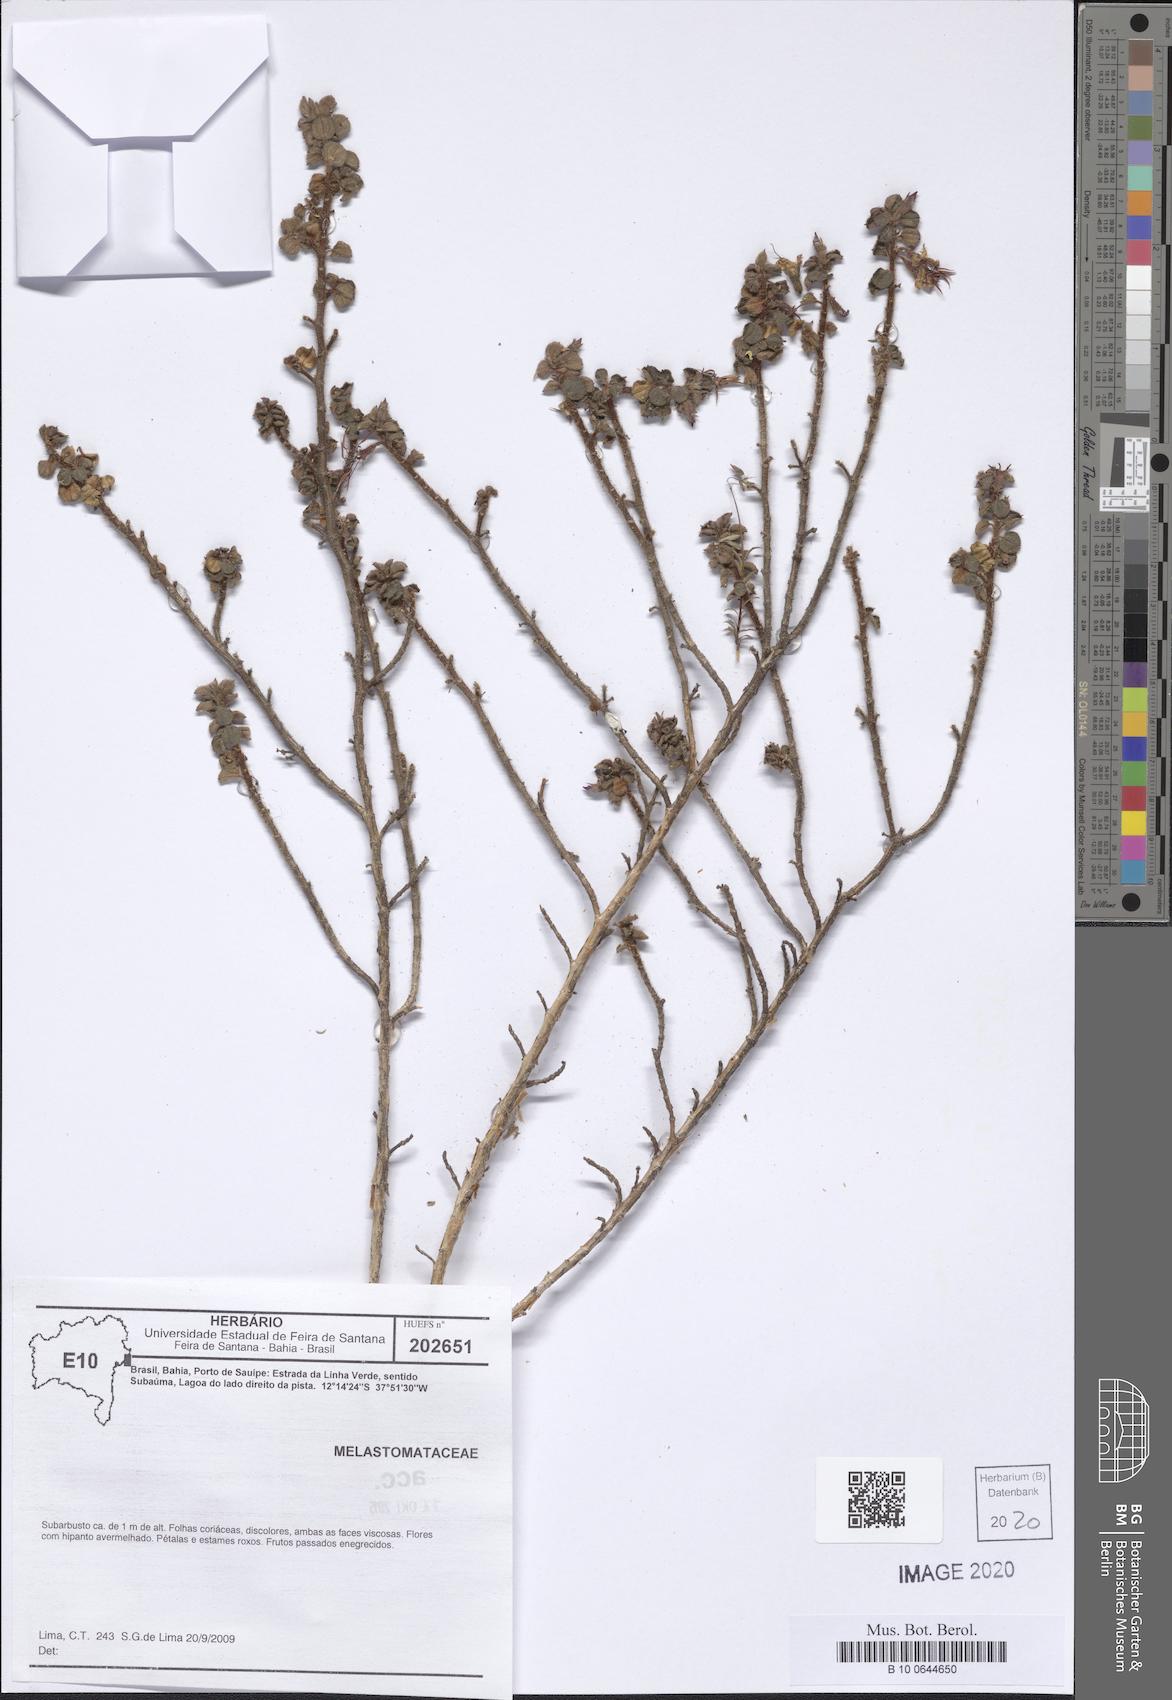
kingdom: Plantae
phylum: Tracheophyta
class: Magnoliopsida
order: Myrtales
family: Melastomataceae
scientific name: Melastomataceae
